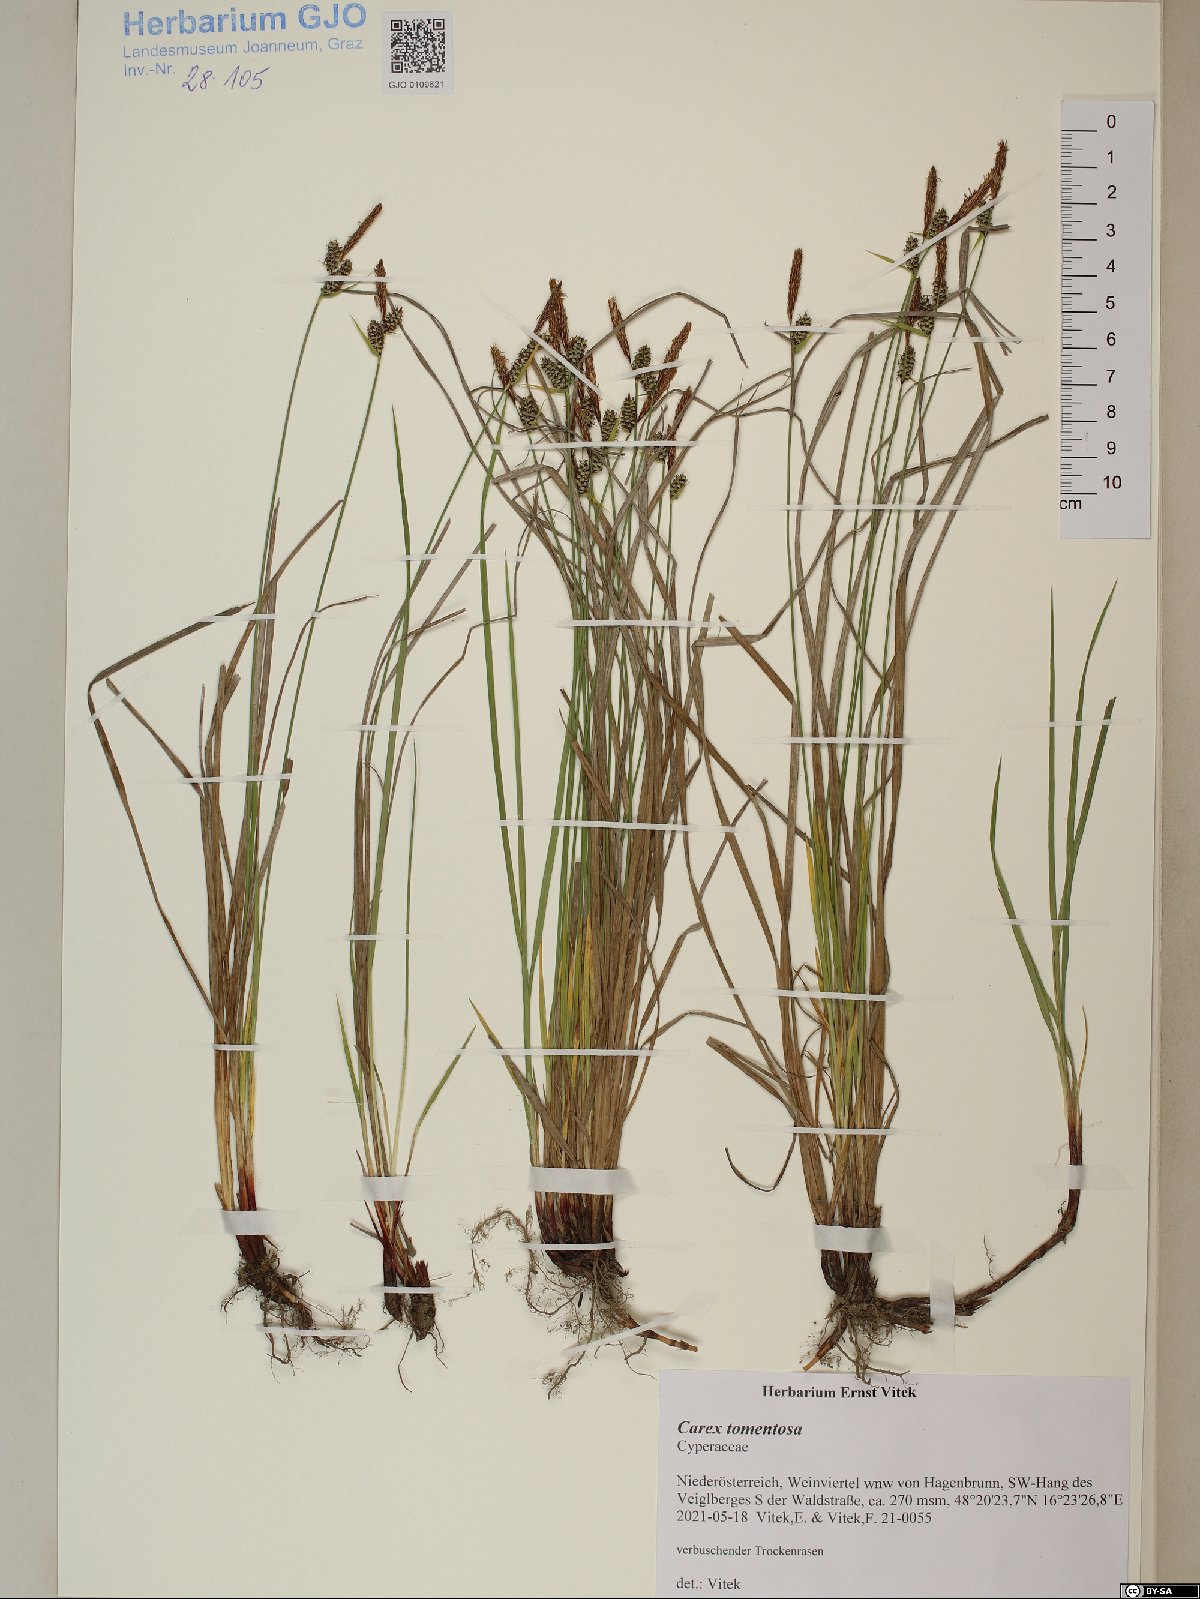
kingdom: Plantae
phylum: Tracheophyta
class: Liliopsida
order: Poales
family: Cyperaceae
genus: Carex
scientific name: Carex tomentosa
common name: Downy-fruited sedge
